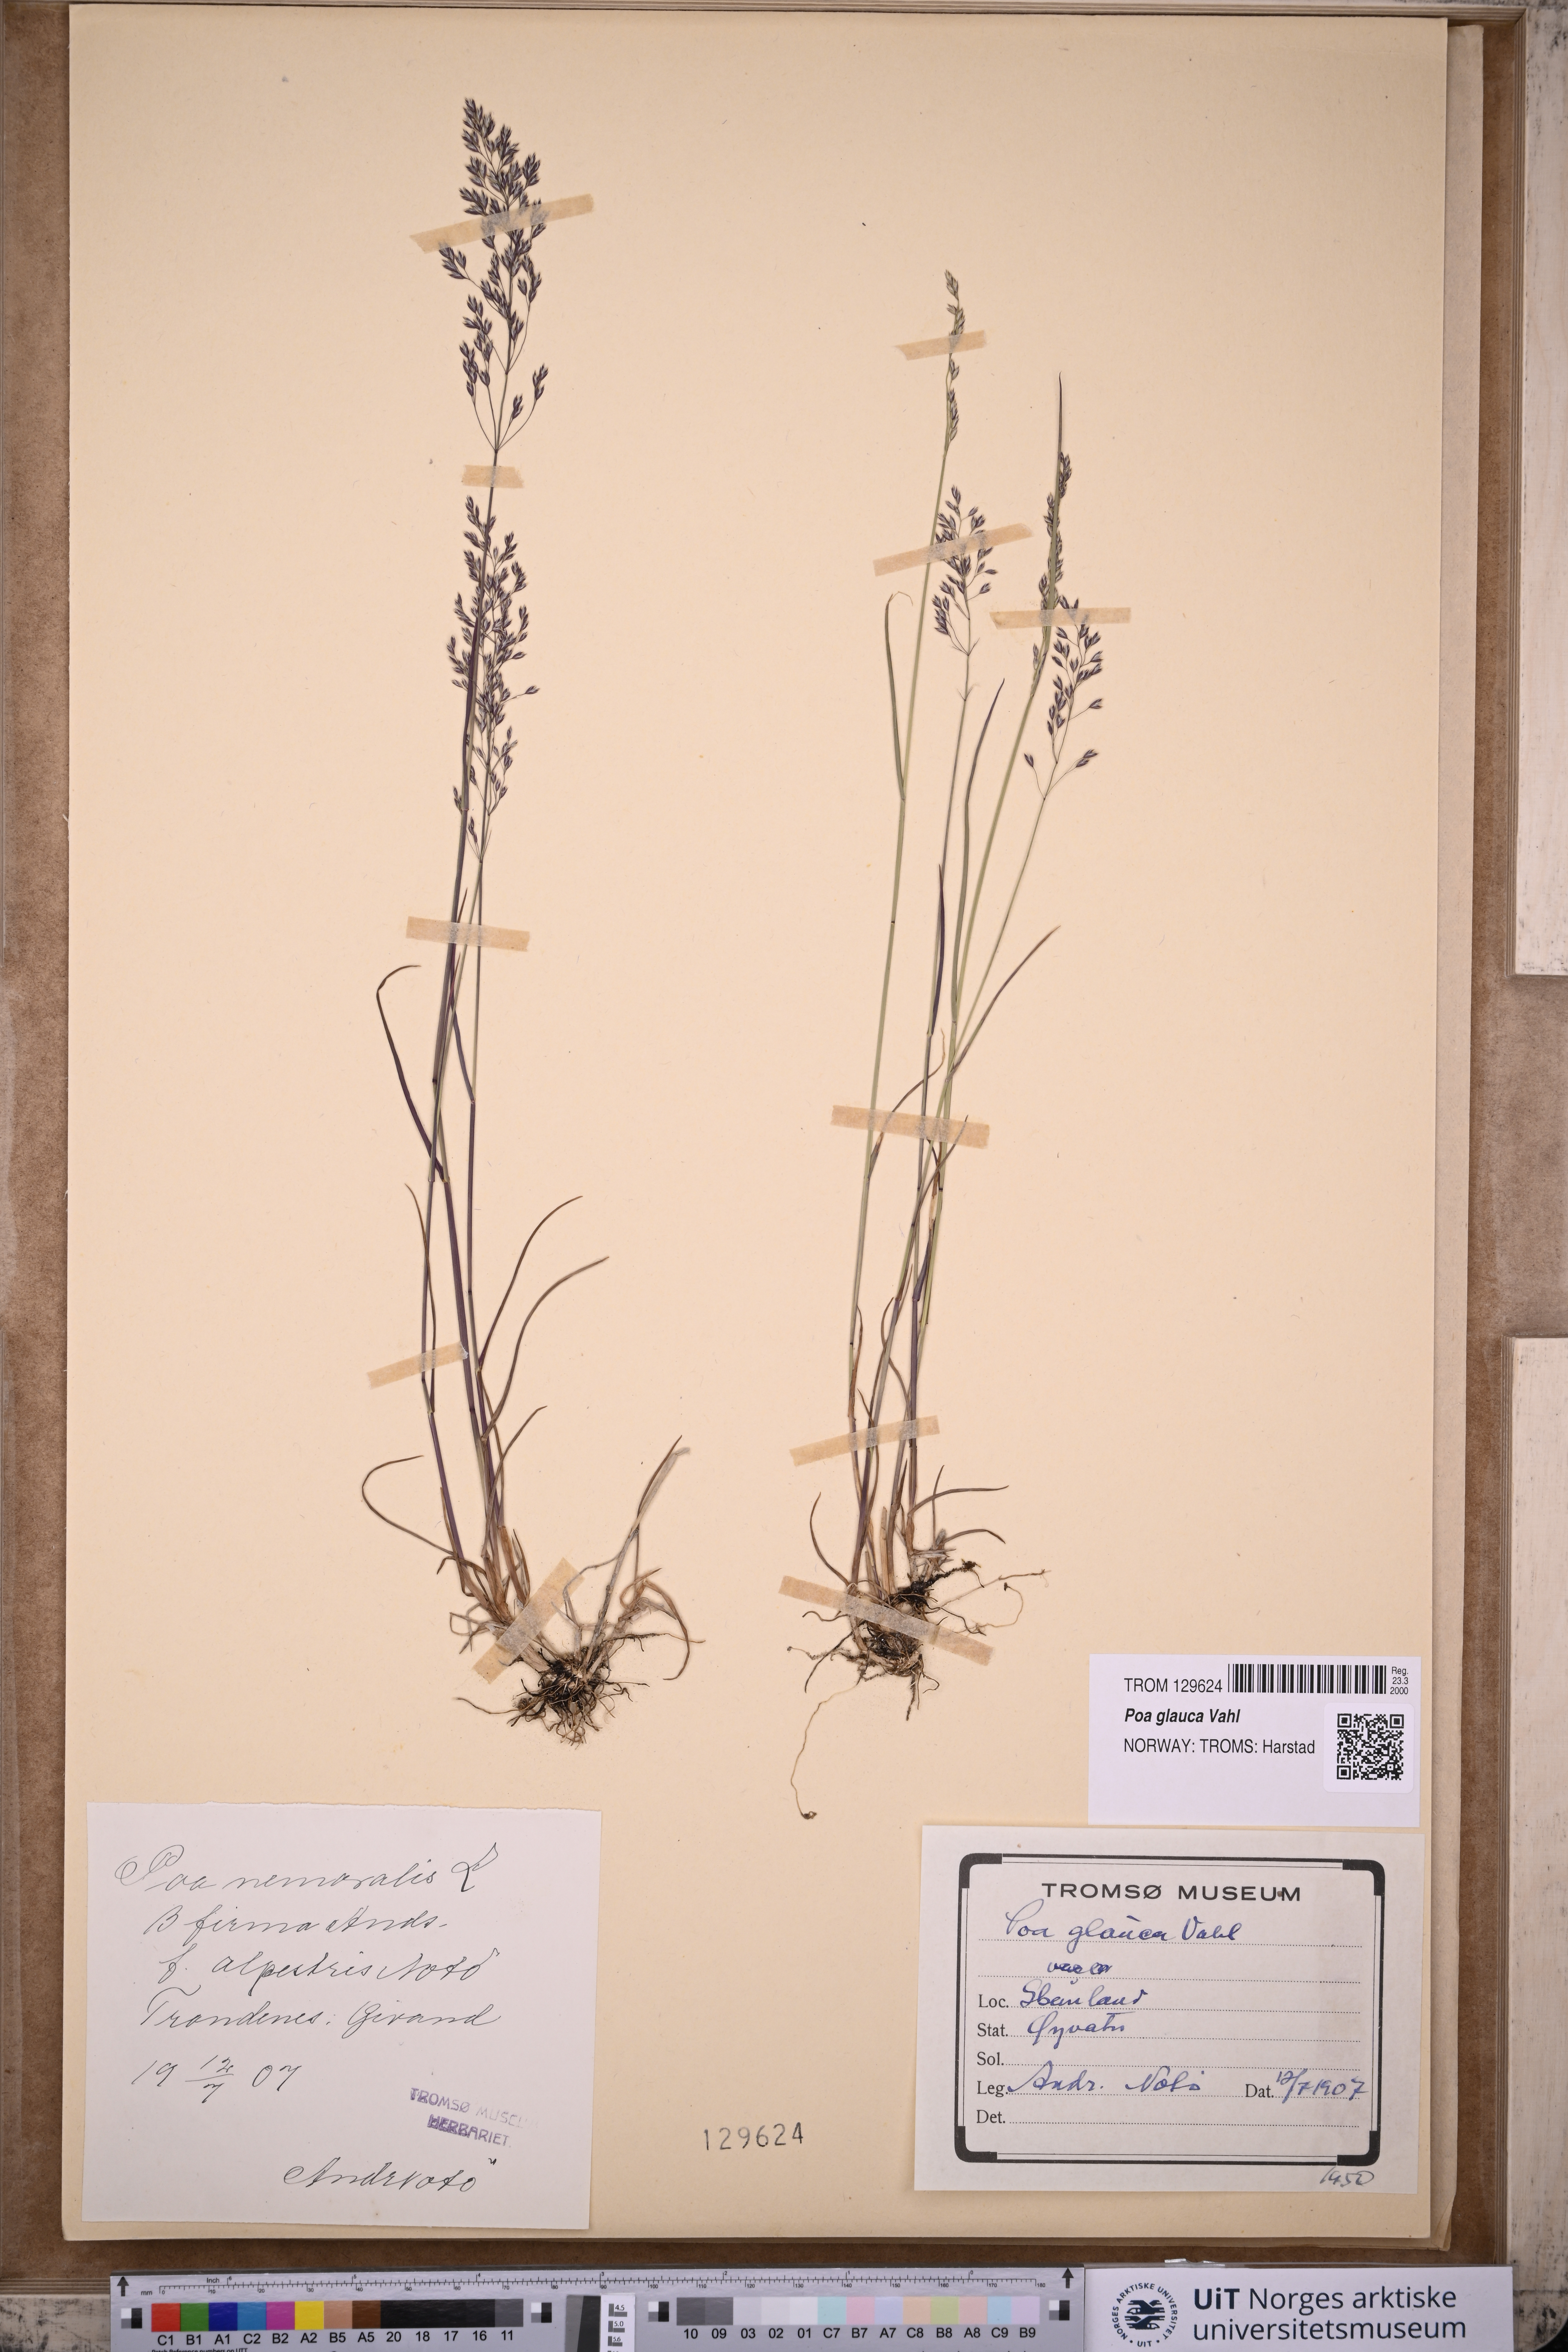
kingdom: Plantae
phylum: Tracheophyta
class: Liliopsida
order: Poales
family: Poaceae
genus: Poa
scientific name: Poa glauca
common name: Glaucous bluegrass
